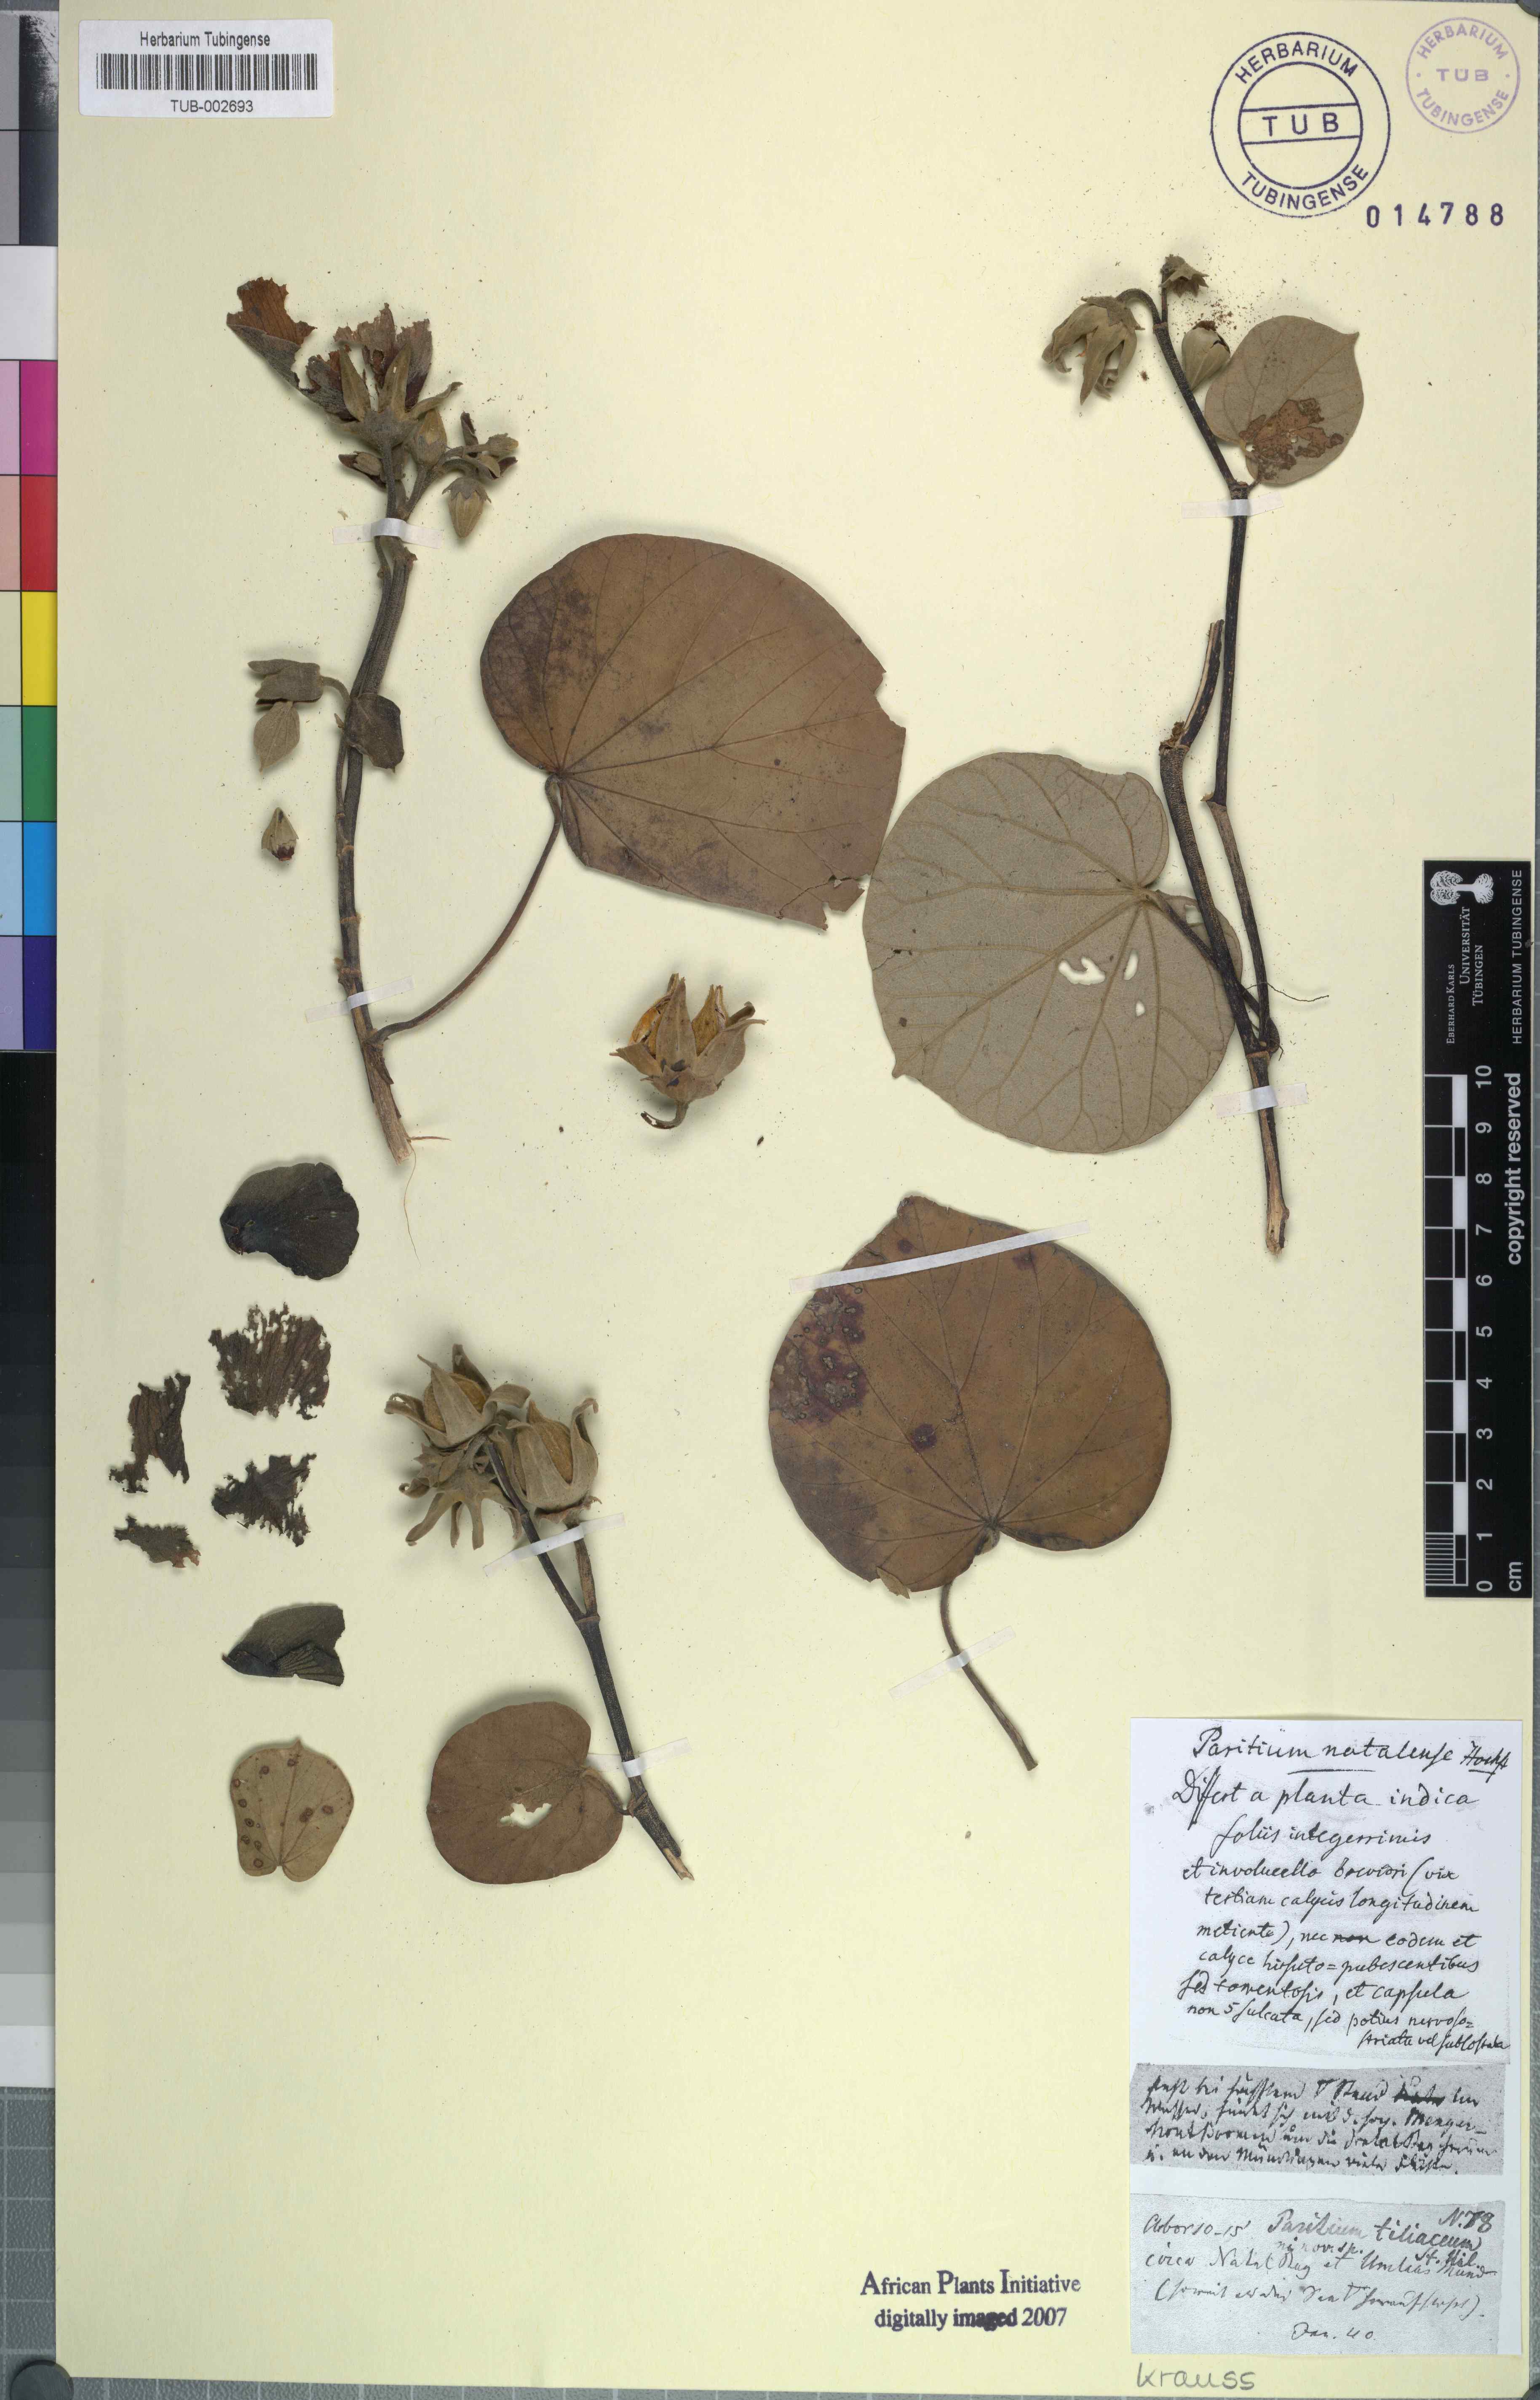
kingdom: Plantae
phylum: Tracheophyta
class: Magnoliopsida
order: Malvales
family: Malvaceae
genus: Talipariti
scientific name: Talipariti tiliaceum
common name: Sea hibiscus
